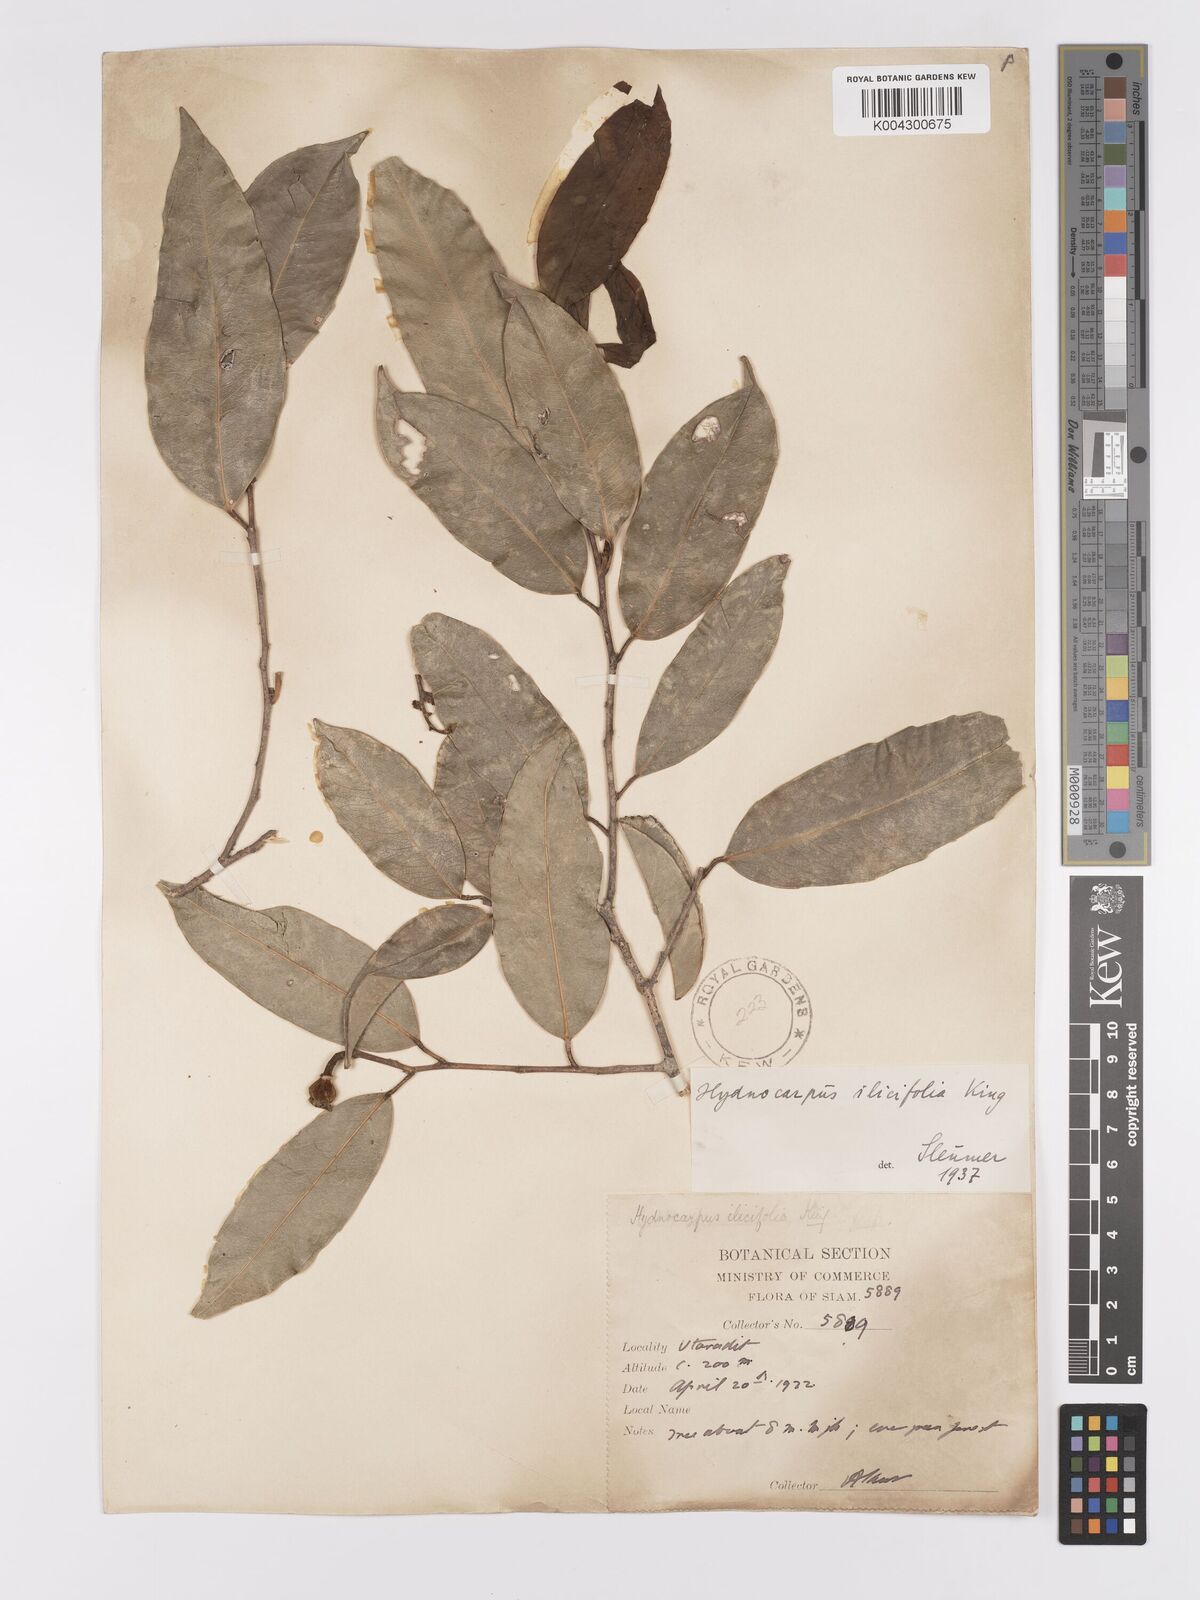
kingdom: Plantae
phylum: Tracheophyta
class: Magnoliopsida
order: Malpighiales
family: Achariaceae
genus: Hydnocarpus
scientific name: Hydnocarpus ilicifolius
